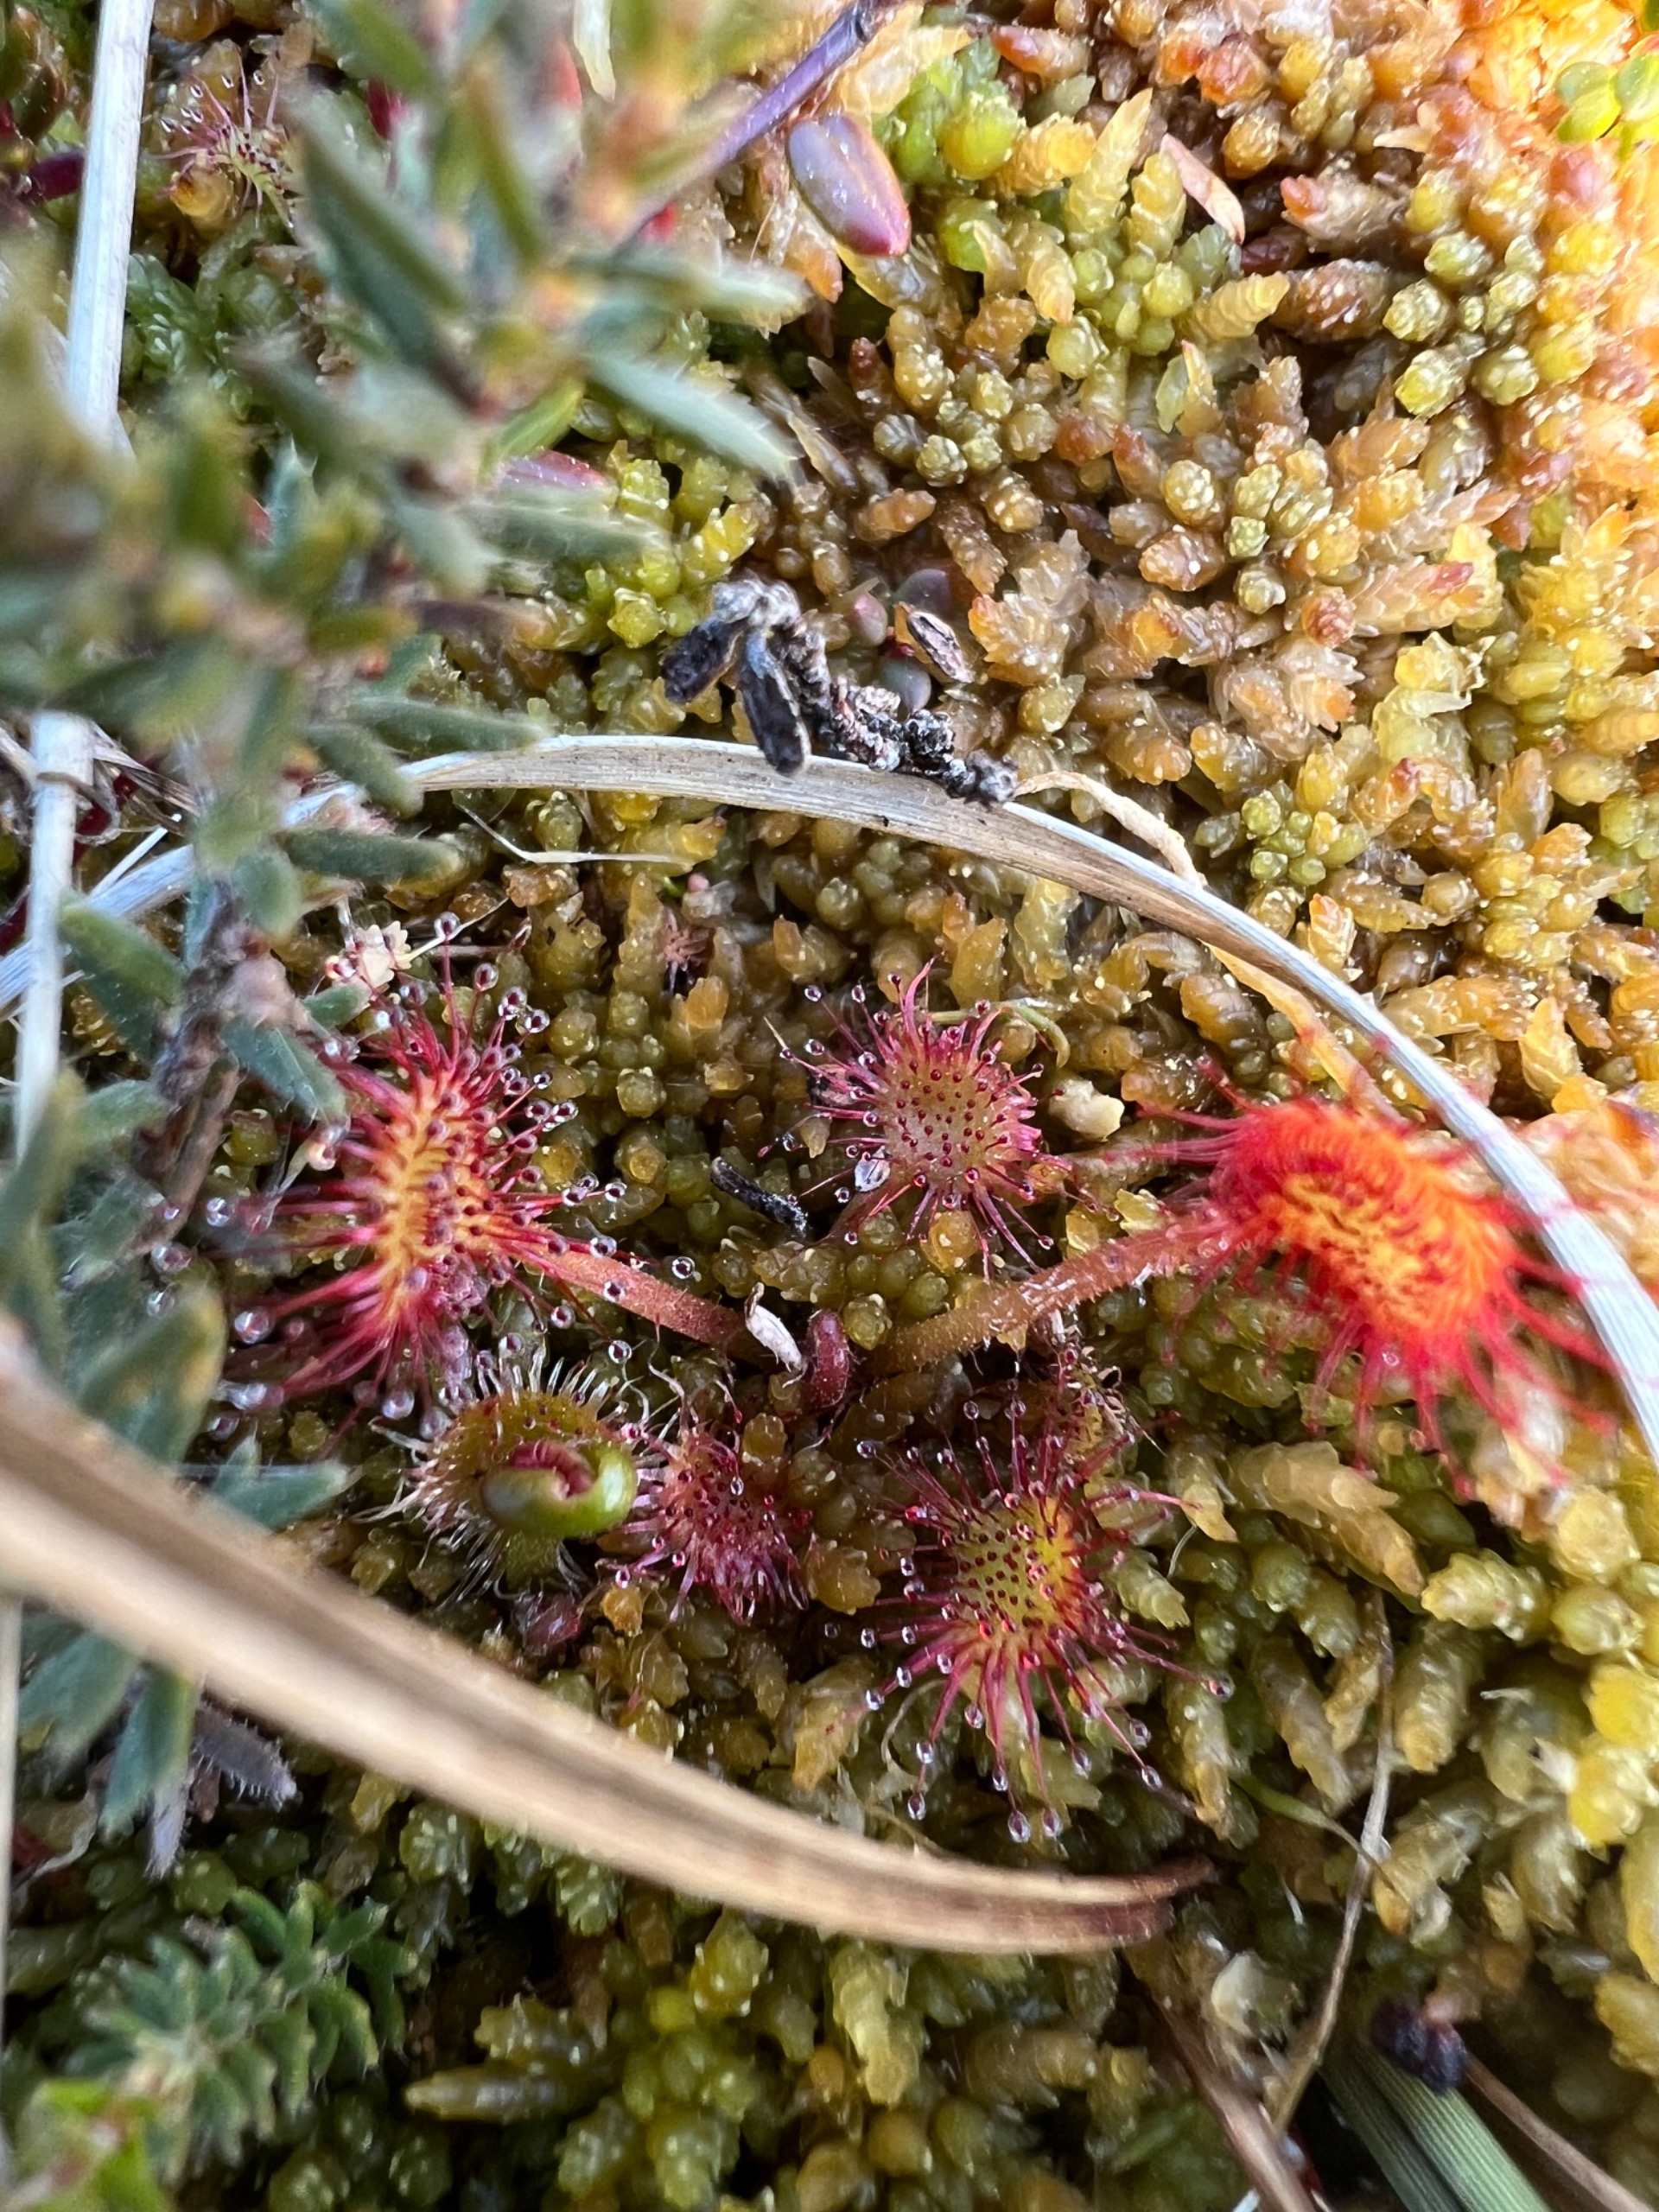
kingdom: Plantae
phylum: Tracheophyta
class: Magnoliopsida
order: Caryophyllales
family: Droseraceae
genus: Drosera
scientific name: Drosera rotundifolia
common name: Rundbladet soldug
